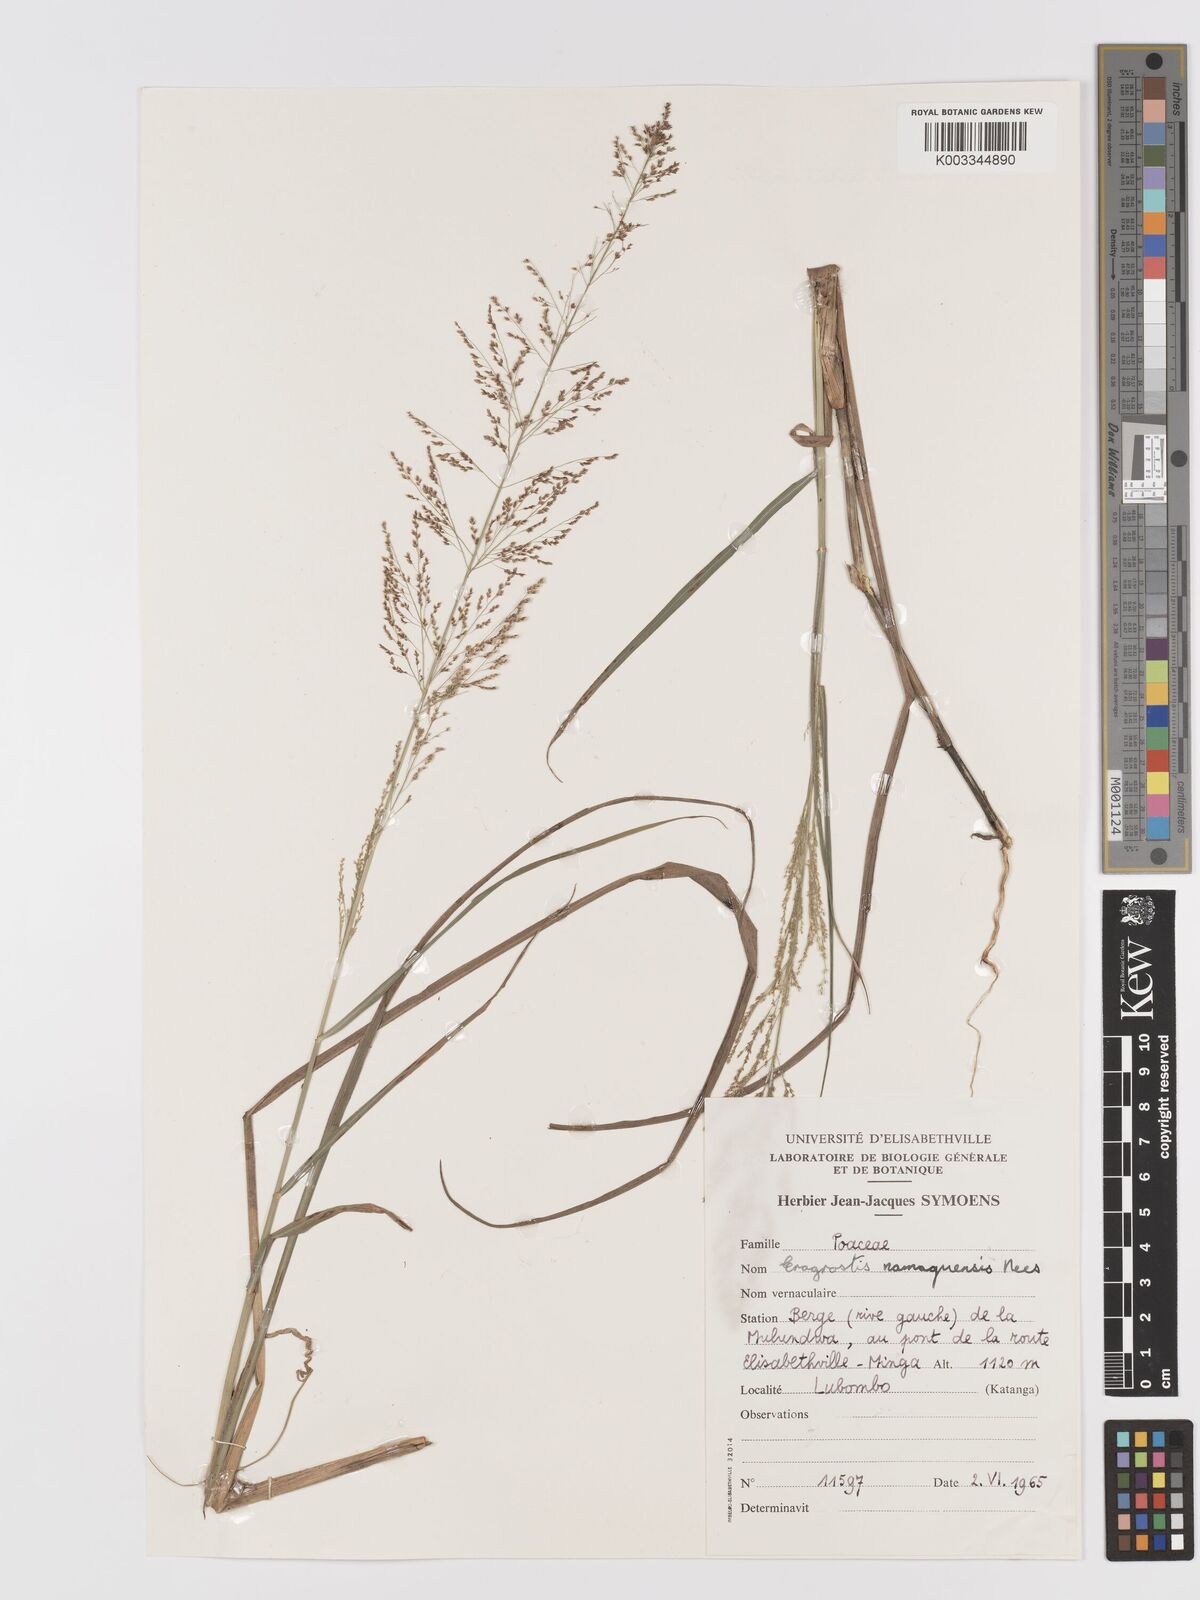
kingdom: Plantae
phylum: Tracheophyta
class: Liliopsida
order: Poales
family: Poaceae
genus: Eragrostis
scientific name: Eragrostis japonica
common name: Pond lovegrass
